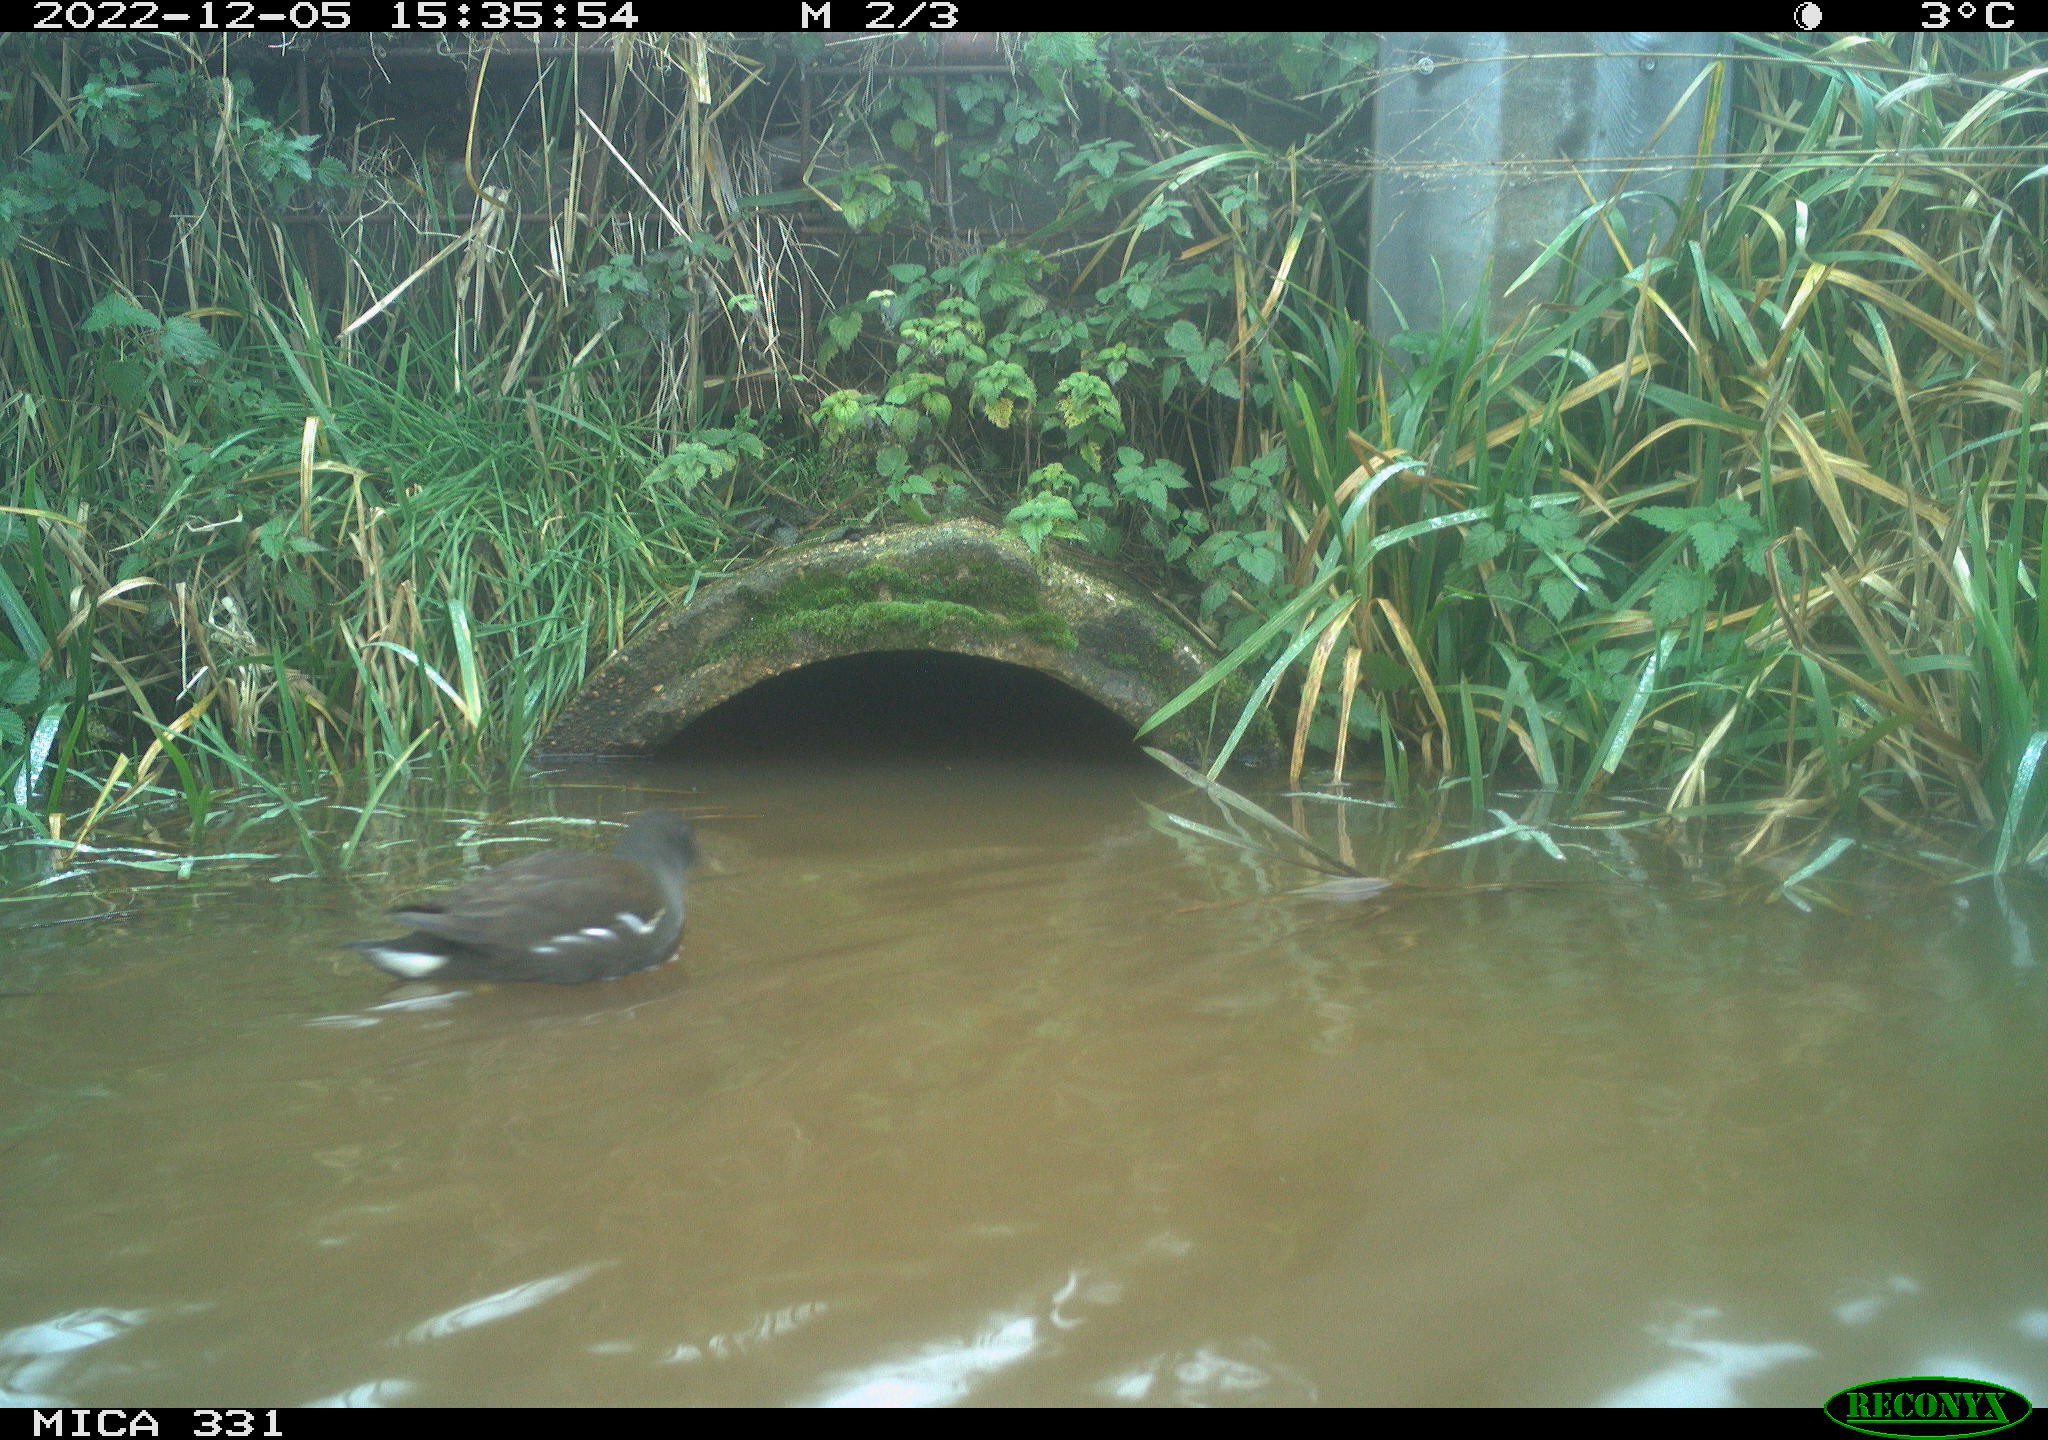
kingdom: Animalia
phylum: Chordata
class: Aves
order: Gruiformes
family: Rallidae
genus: Gallinula
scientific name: Gallinula chloropus
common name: Common moorhen
